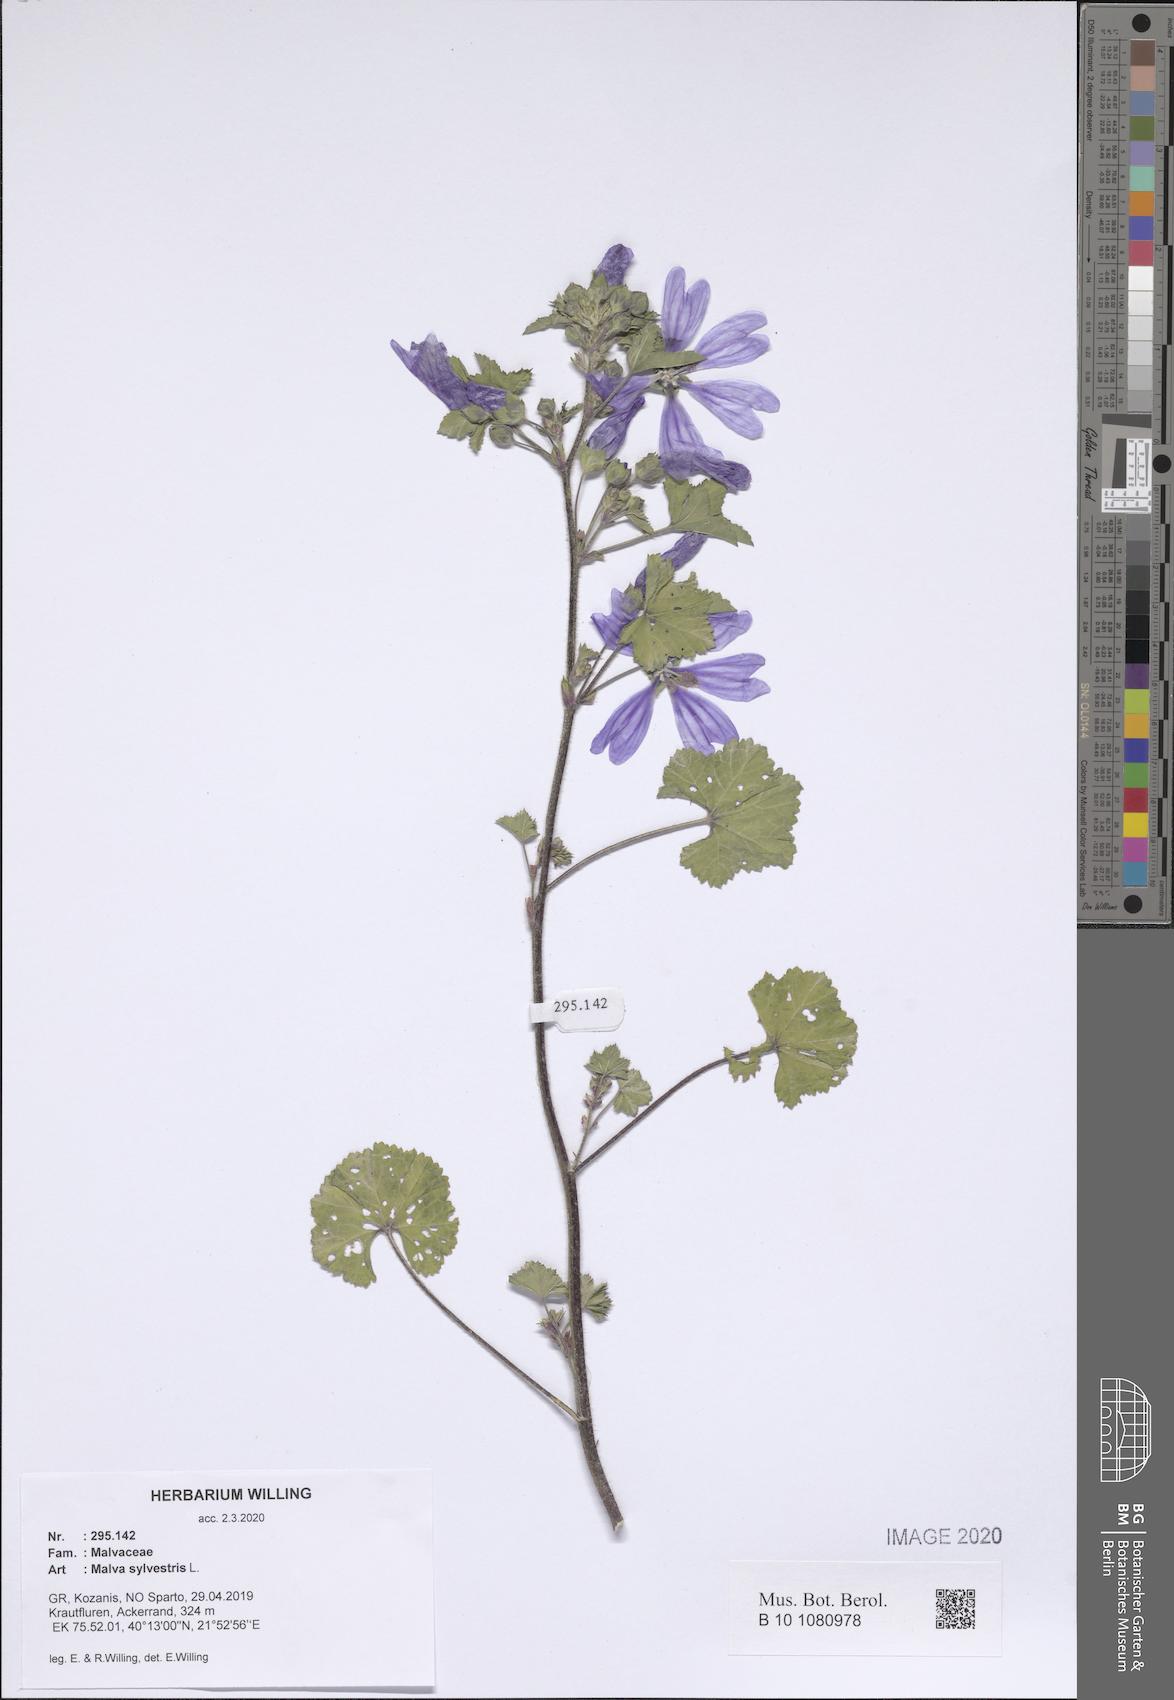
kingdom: Plantae
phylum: Tracheophyta
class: Magnoliopsida
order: Malvales
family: Malvaceae
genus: Malva
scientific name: Malva sylvestris
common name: Common mallow
